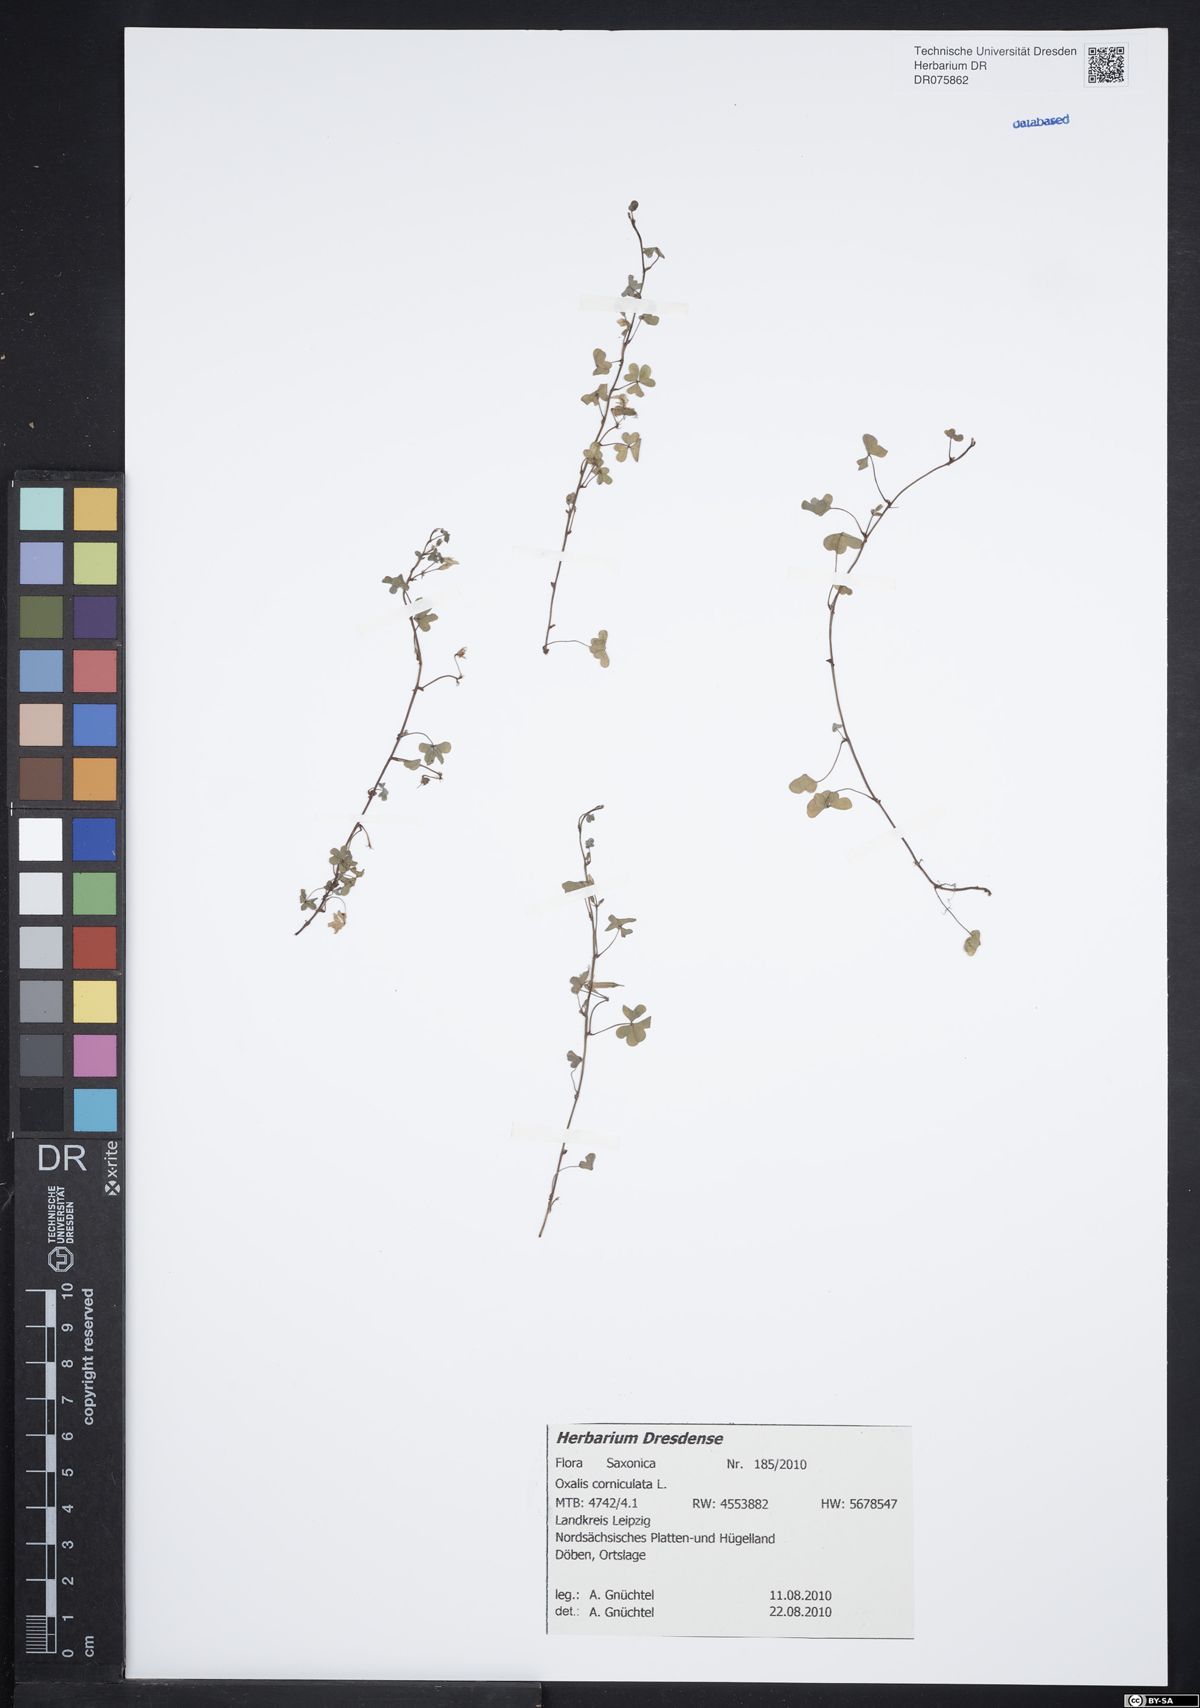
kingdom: Plantae
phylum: Tracheophyta
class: Magnoliopsida
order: Oxalidales
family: Oxalidaceae
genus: Oxalis
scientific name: Oxalis corniculata
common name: Procumbent yellow-sorrel
